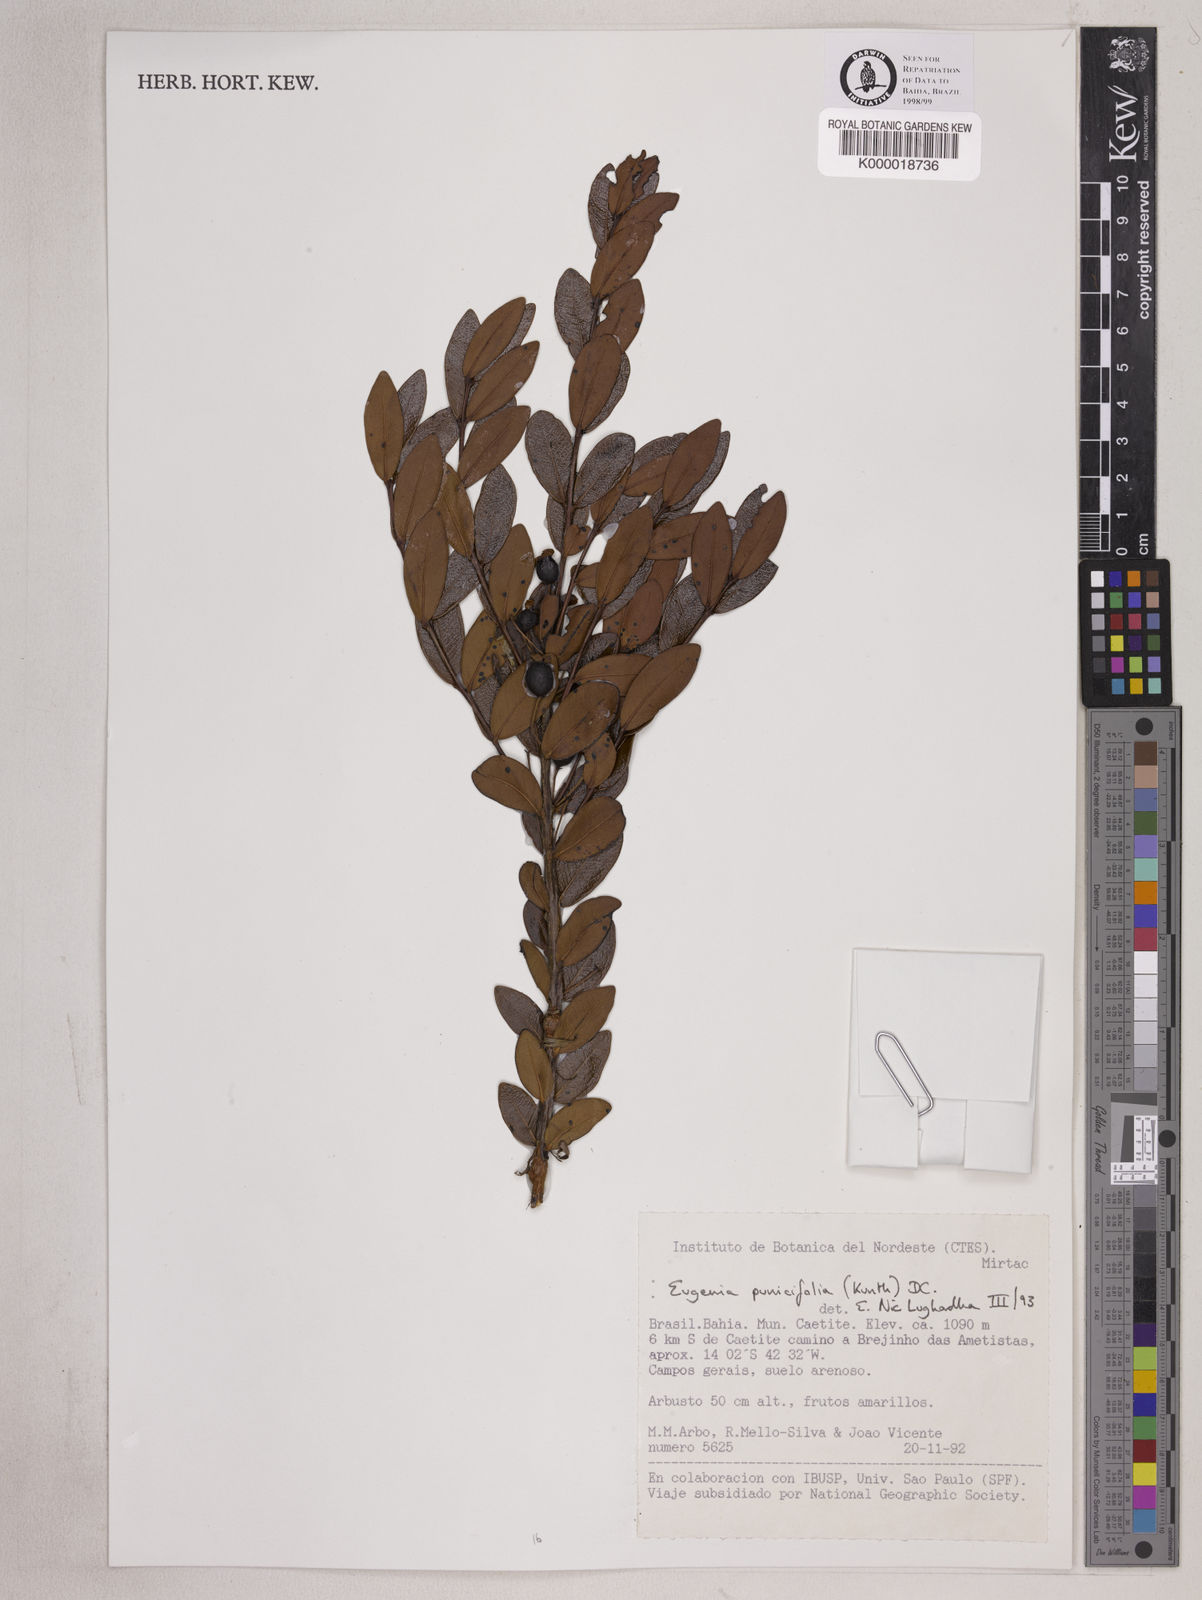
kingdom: Plantae
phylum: Tracheophyta
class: Magnoliopsida
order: Myrtales
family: Myrtaceae
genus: Eugenia
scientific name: Eugenia punicifolia
